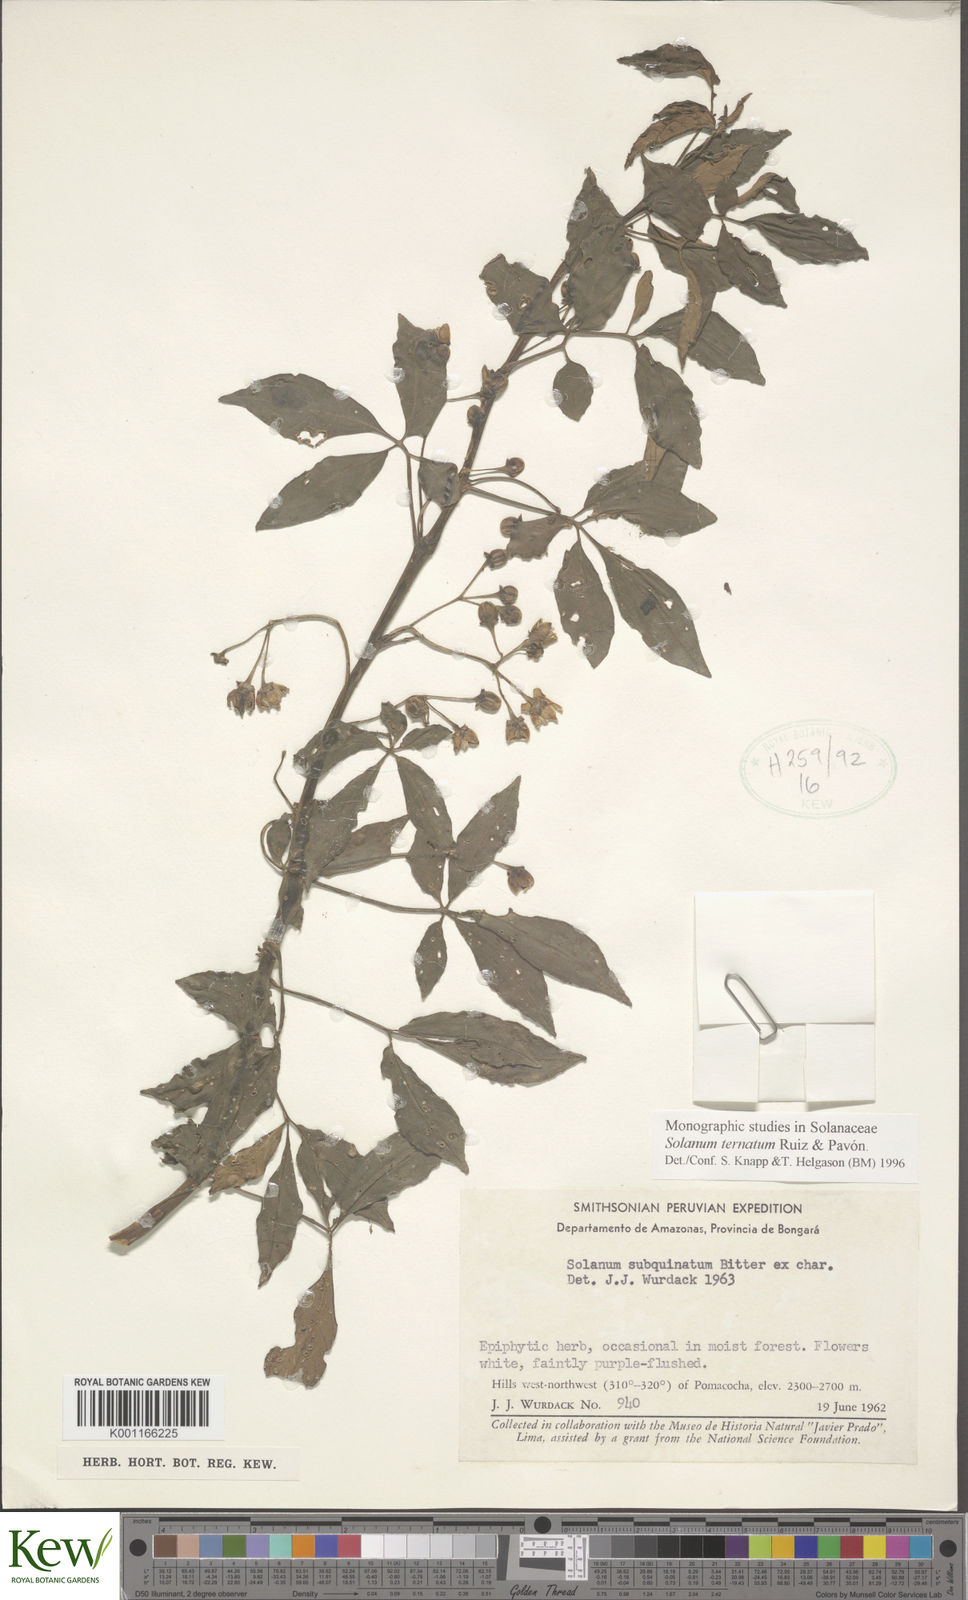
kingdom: Plantae
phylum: Tracheophyta
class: Magnoliopsida
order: Solanales
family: Solanaceae
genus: Solanum
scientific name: Solanum ternatum
